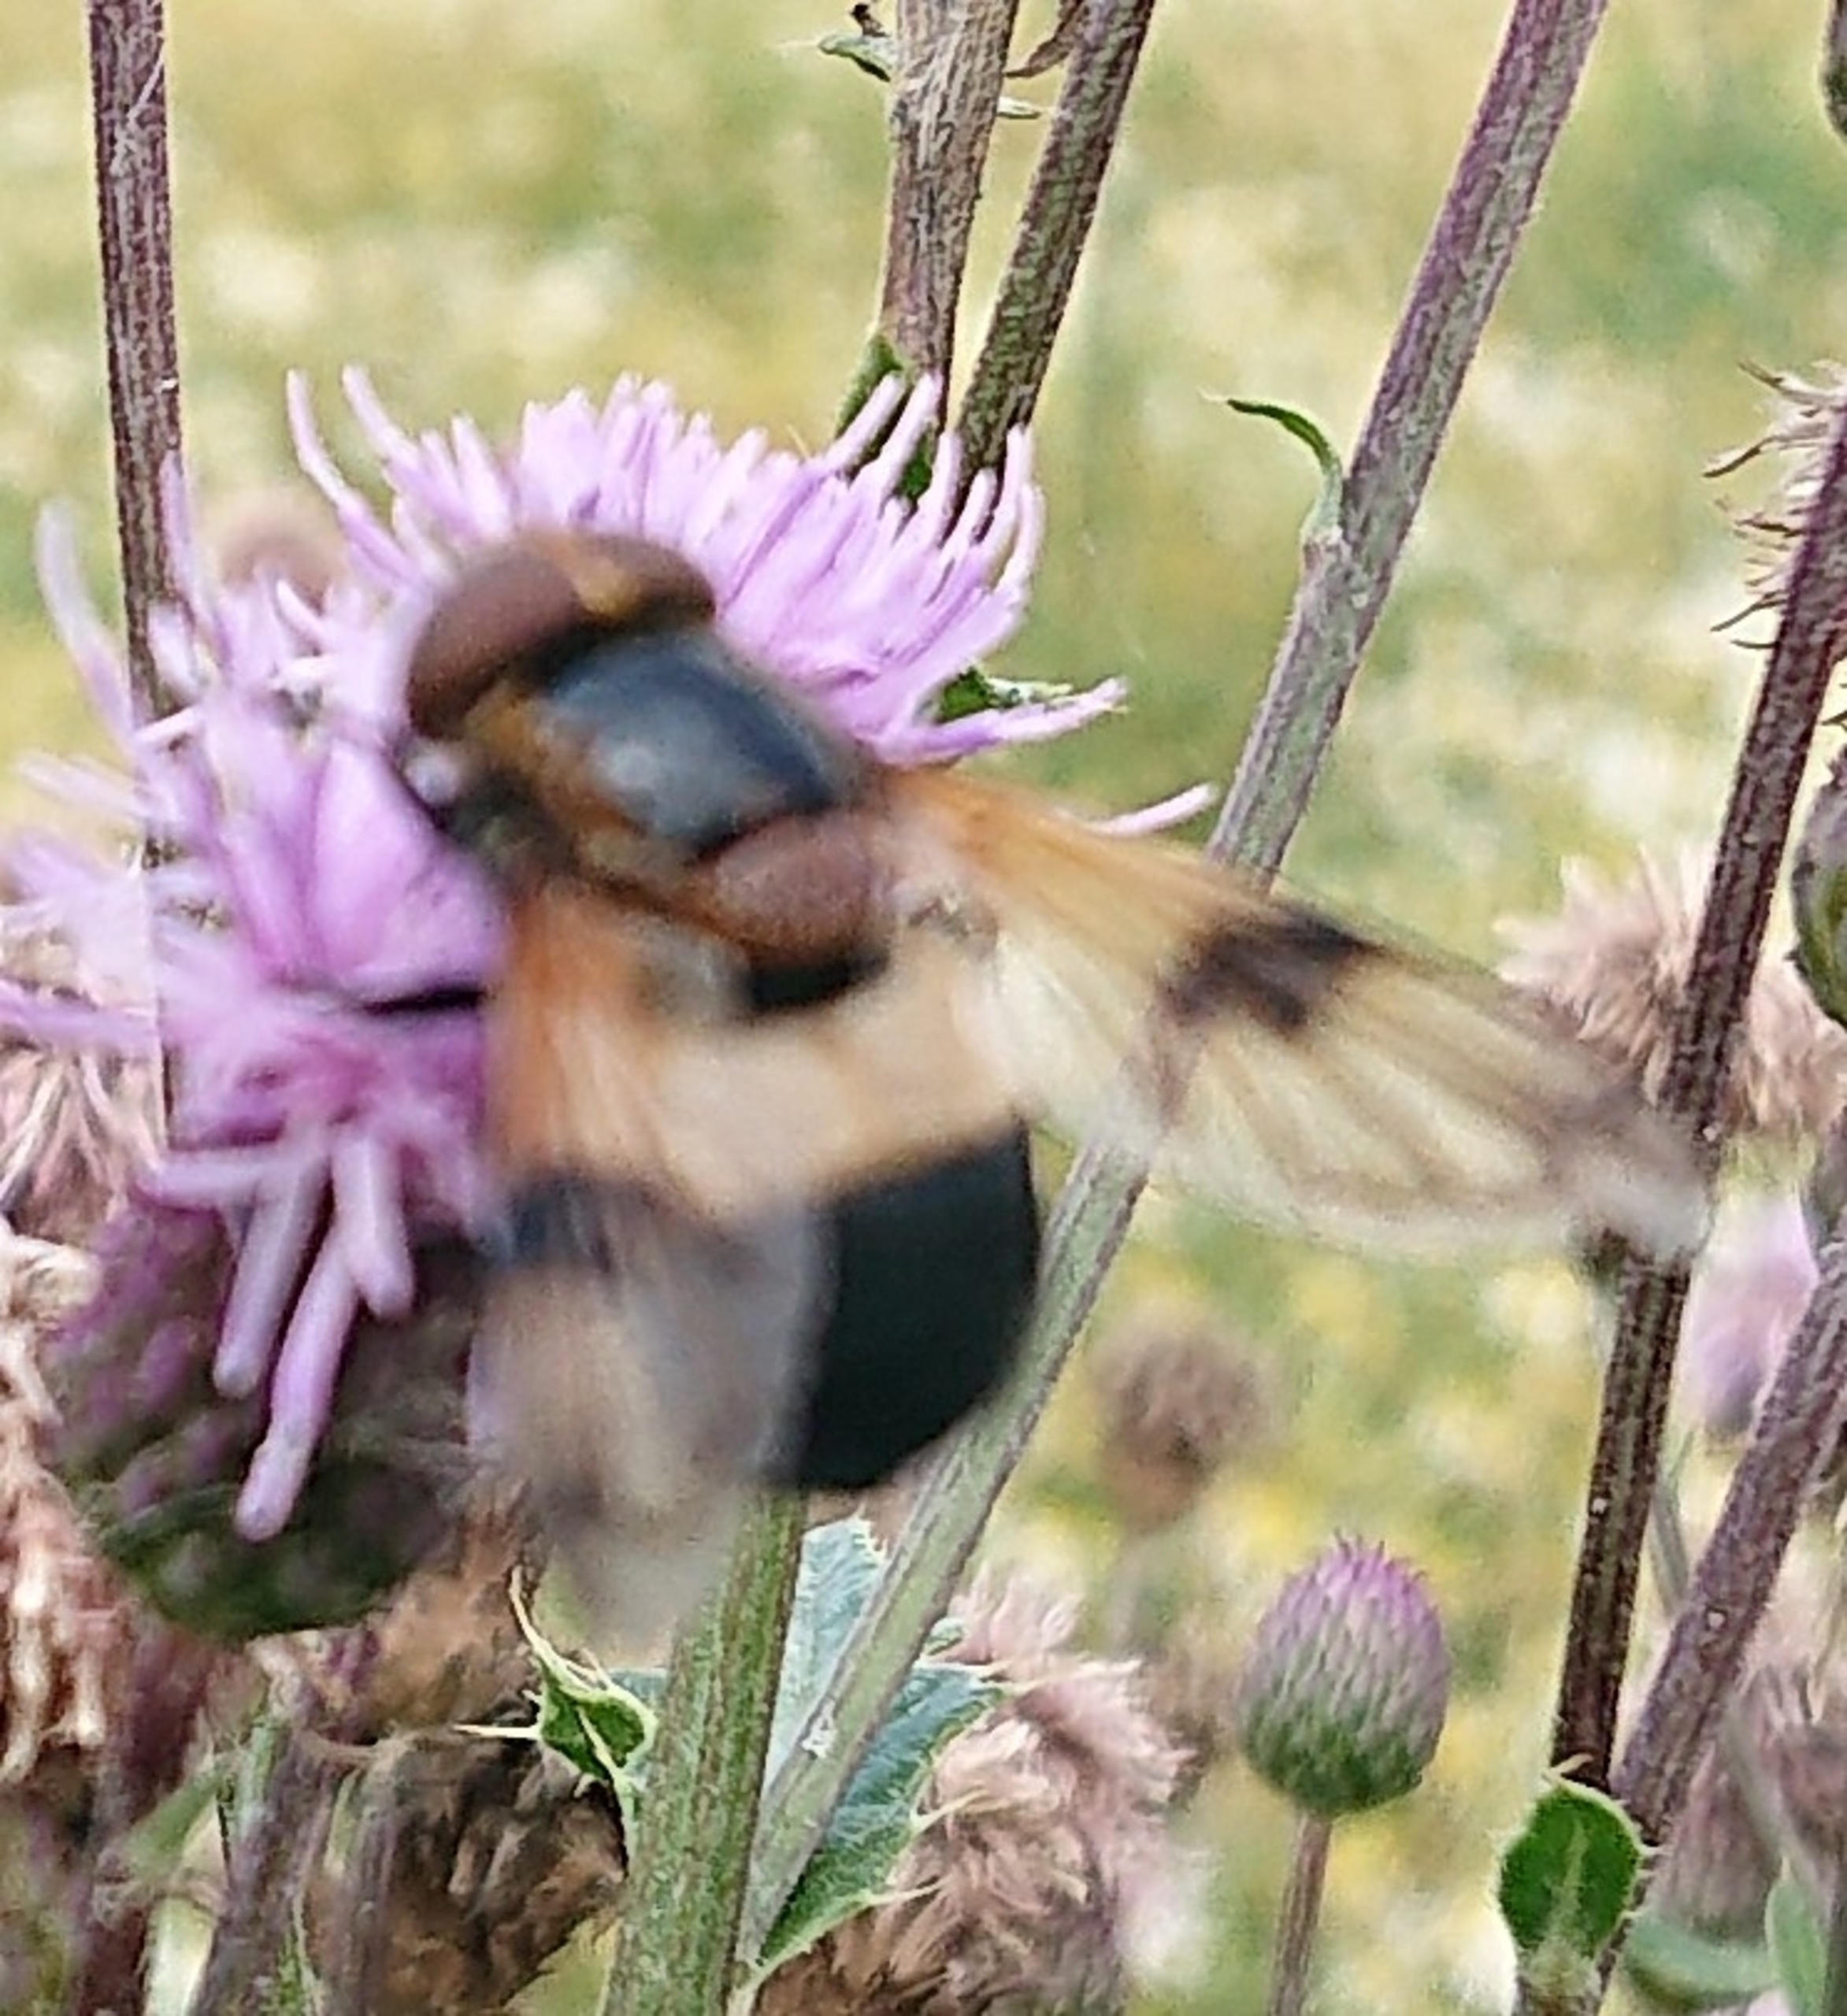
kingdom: Animalia
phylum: Arthropoda
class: Insecta
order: Diptera
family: Syrphidae
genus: Volucella
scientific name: Volucella pellucens
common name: Hvidbåndet humlesvirreflue
